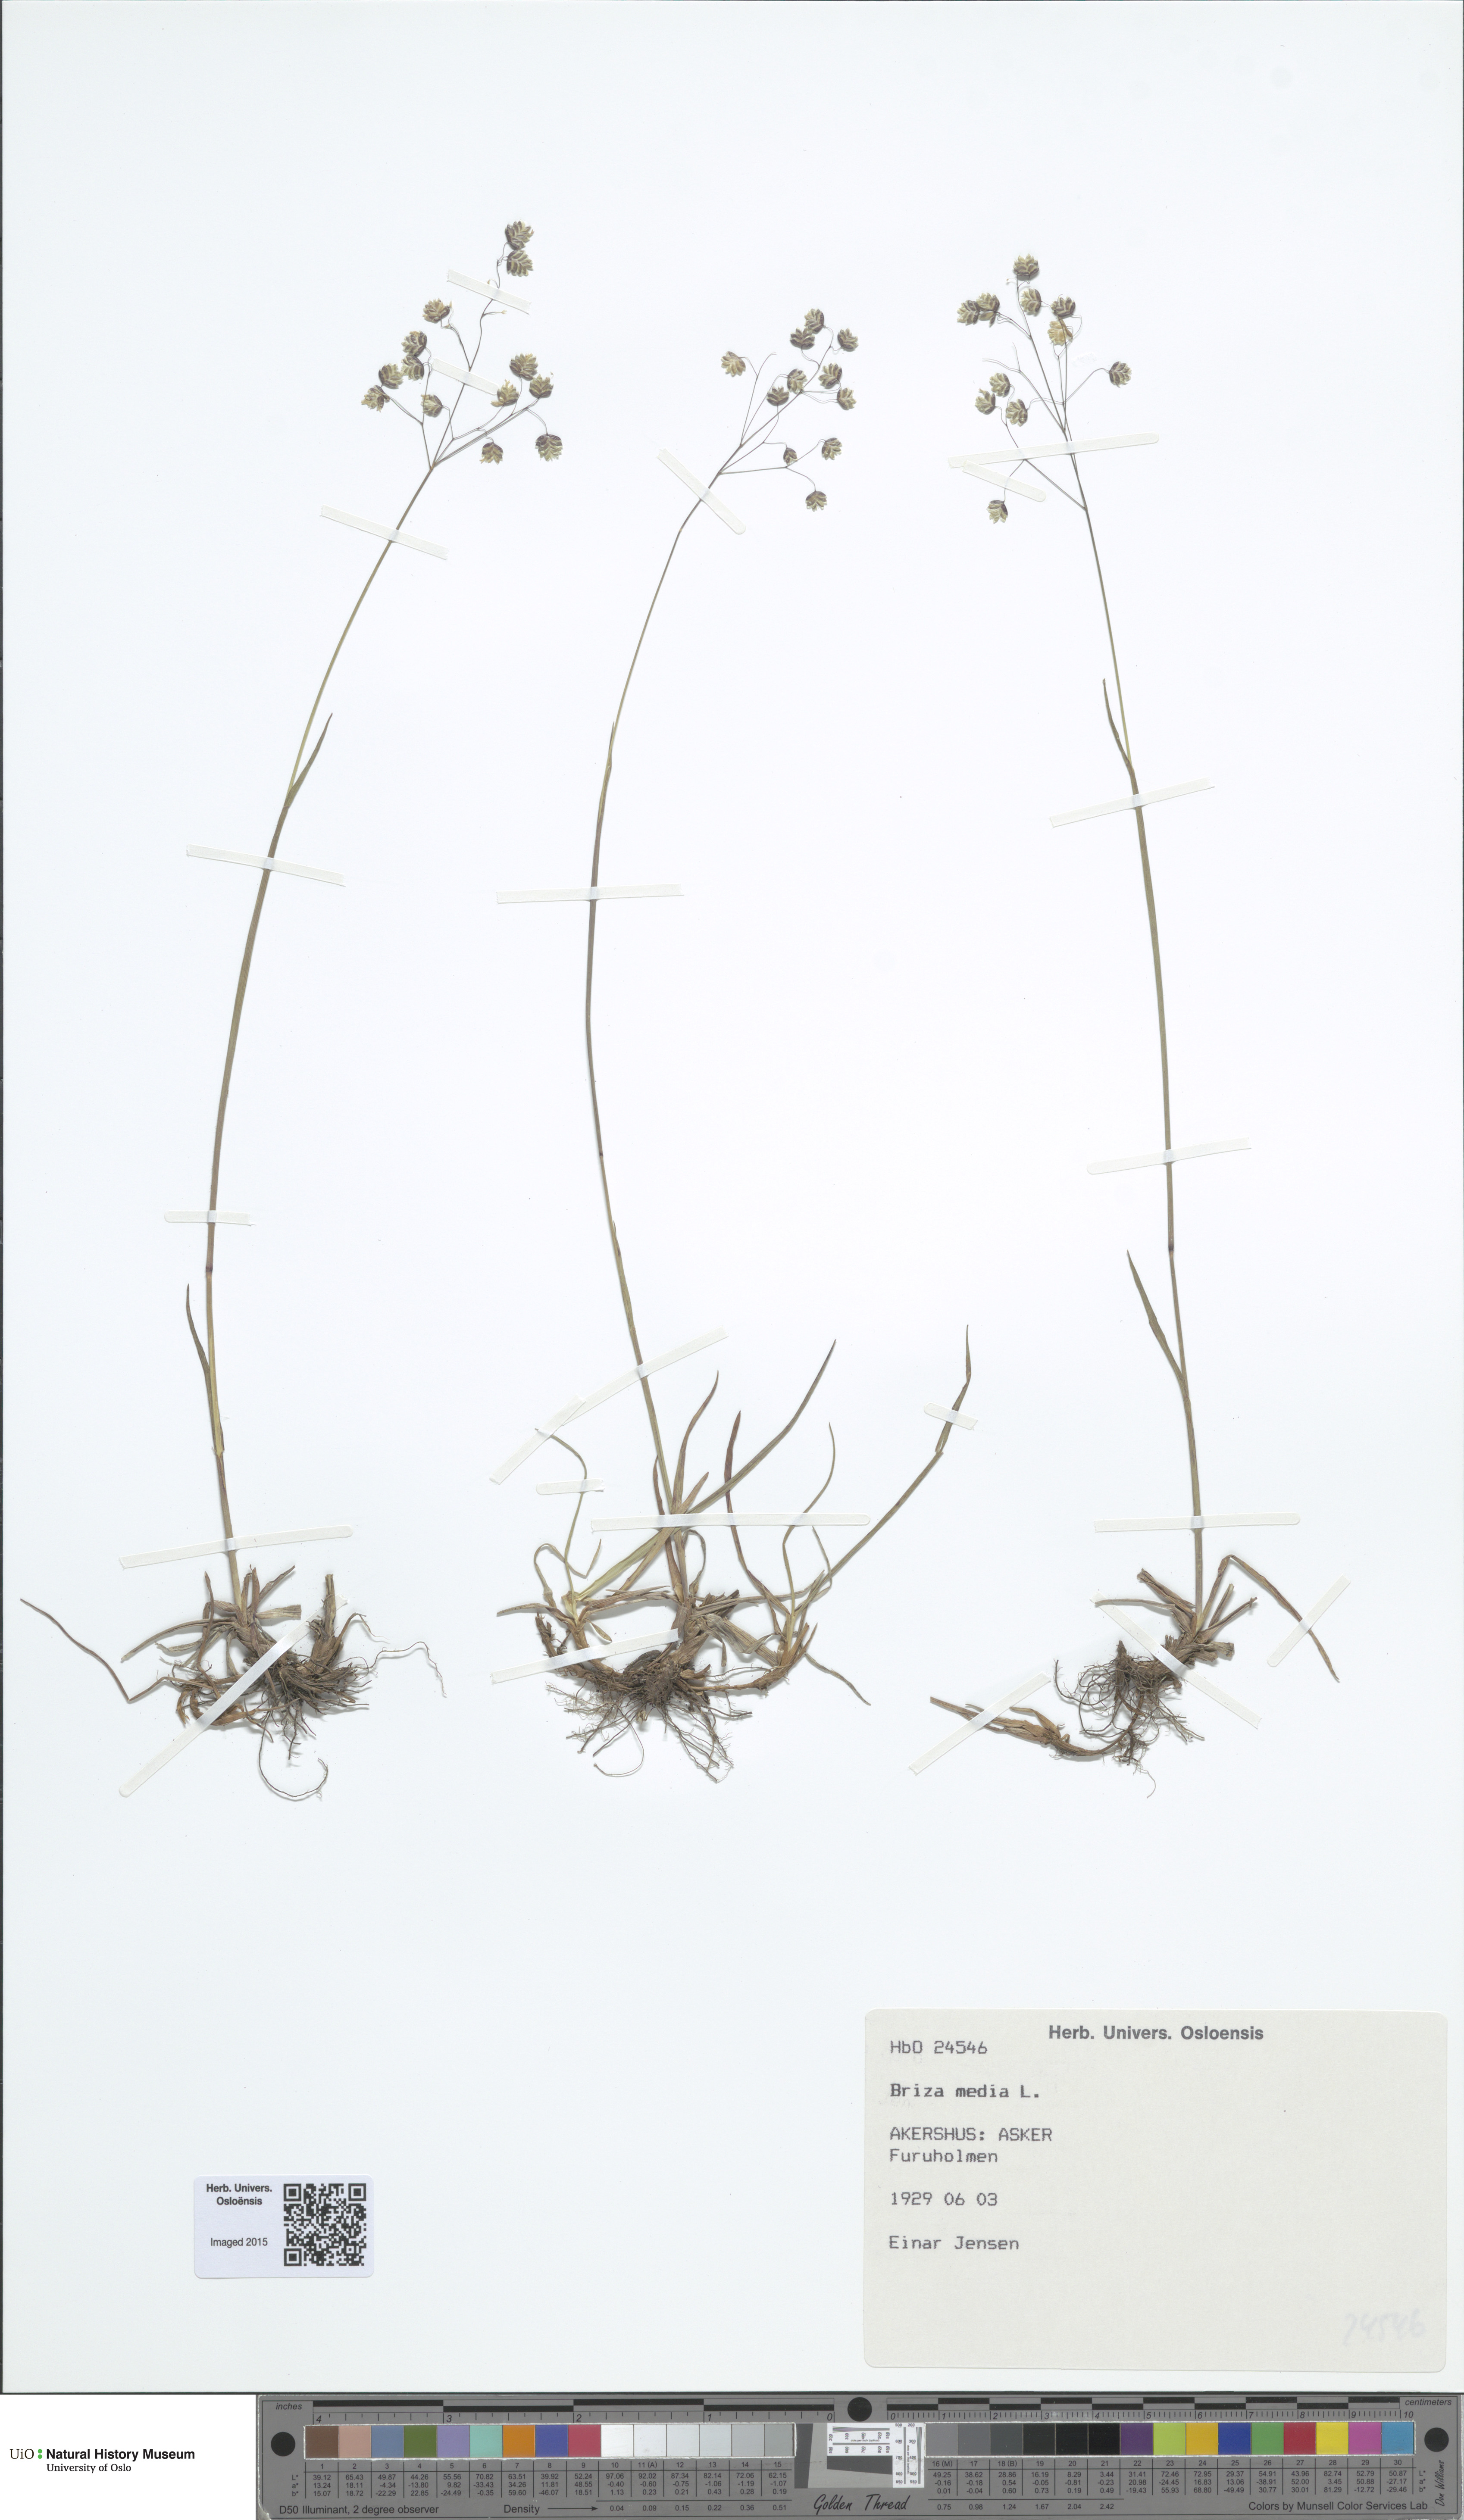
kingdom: Plantae
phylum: Tracheophyta
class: Liliopsida
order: Poales
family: Poaceae
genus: Briza
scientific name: Briza media
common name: Quaking grass
